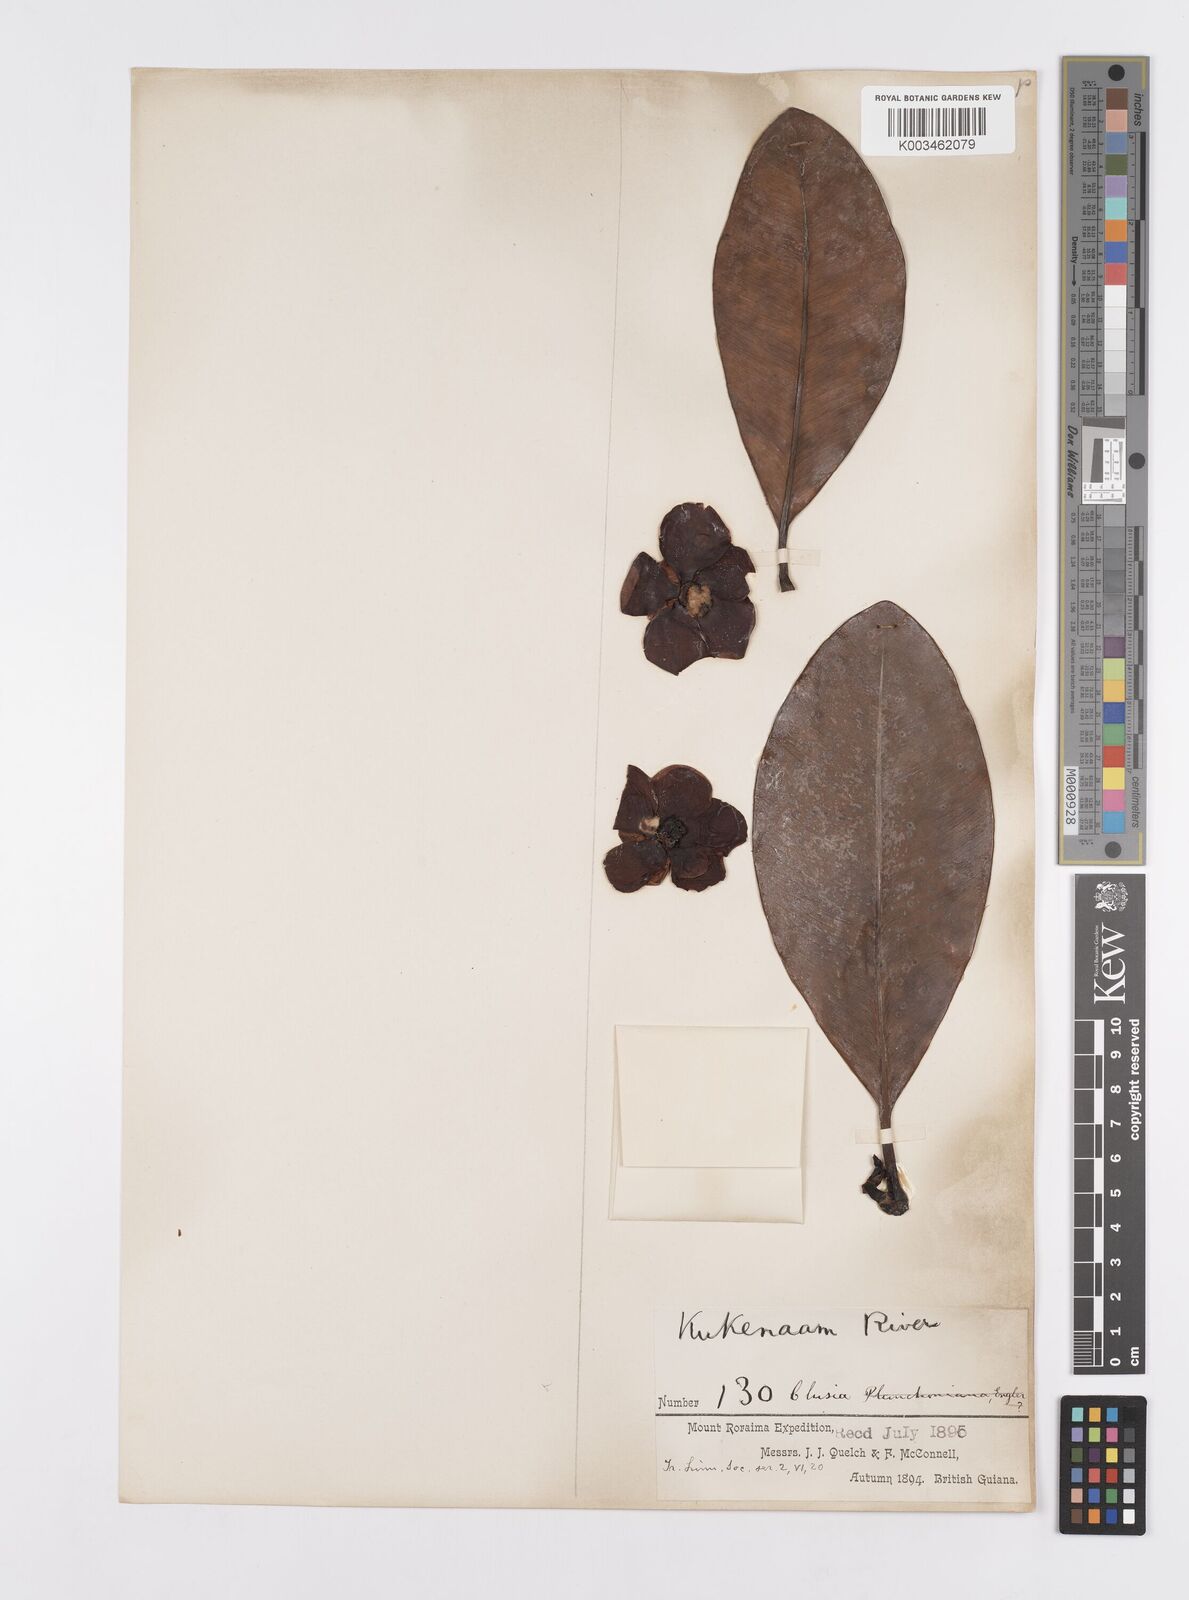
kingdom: Plantae
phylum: Tracheophyta
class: Magnoliopsida
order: Malpighiales
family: Clusiaceae
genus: Clusia
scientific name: Clusia schomburgkiana
